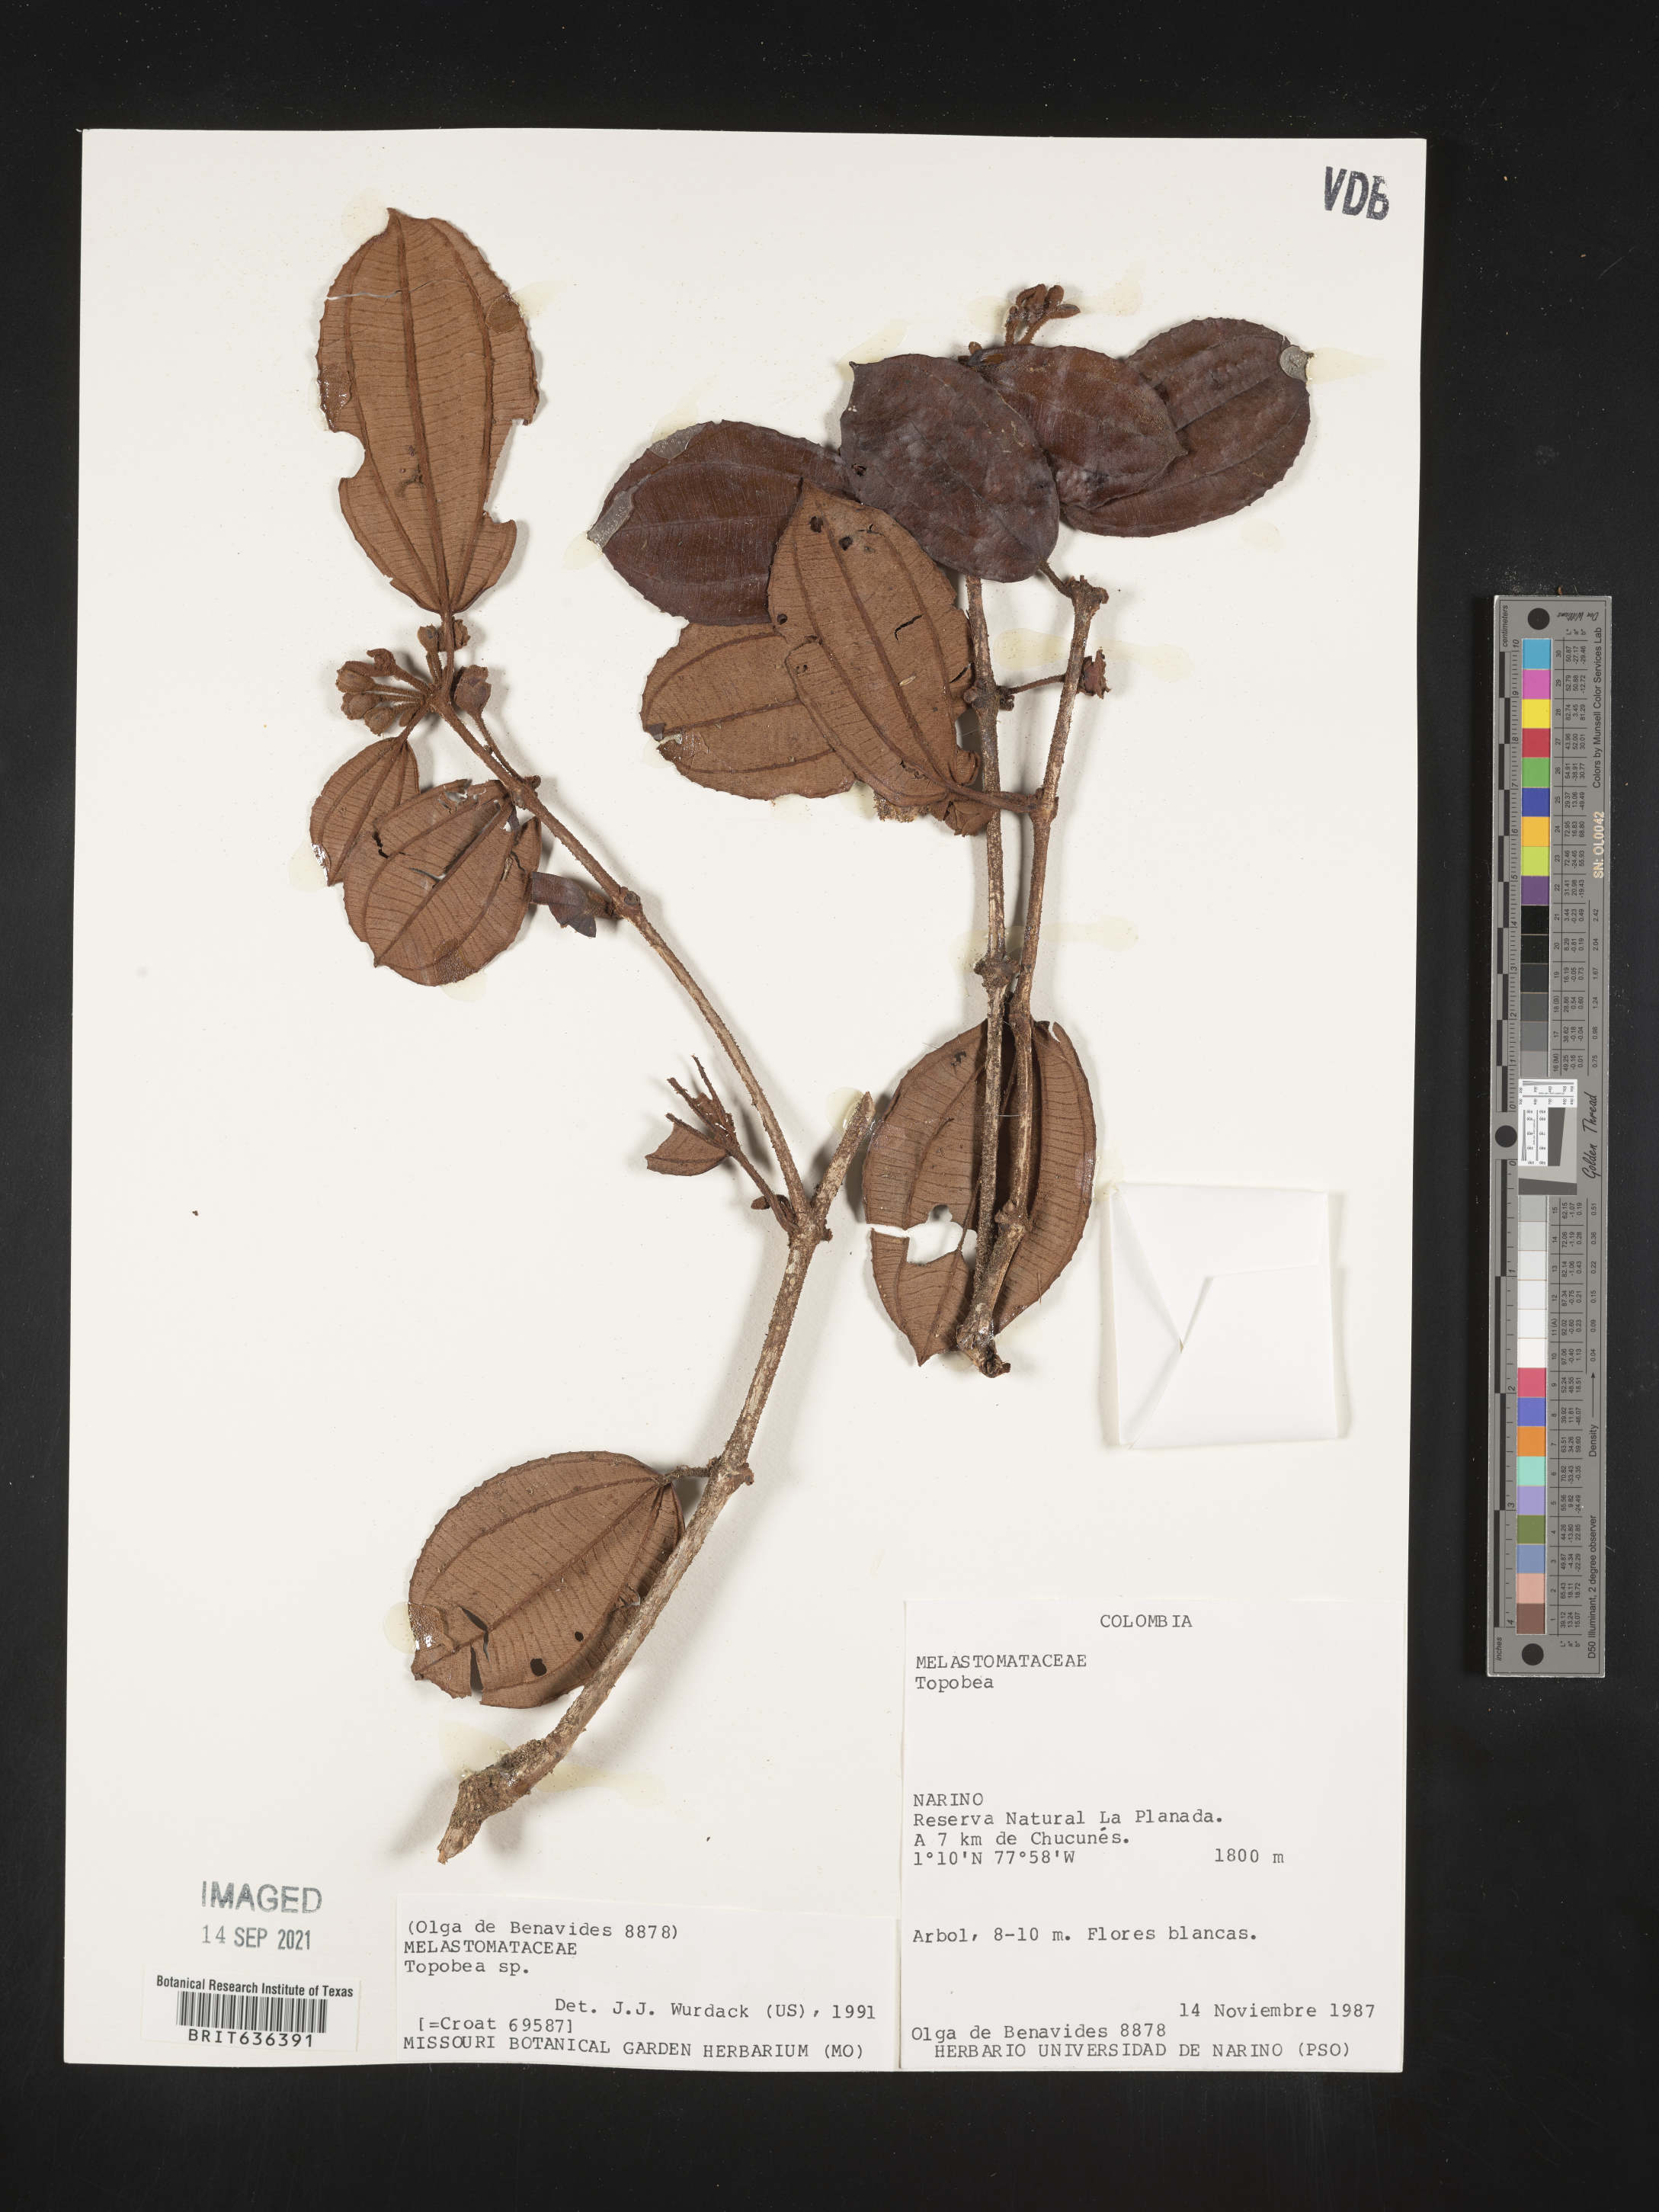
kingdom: Plantae
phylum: Tracheophyta
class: Magnoliopsida
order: Myrtales
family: Melastomataceae
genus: Blakea
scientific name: Blakea
